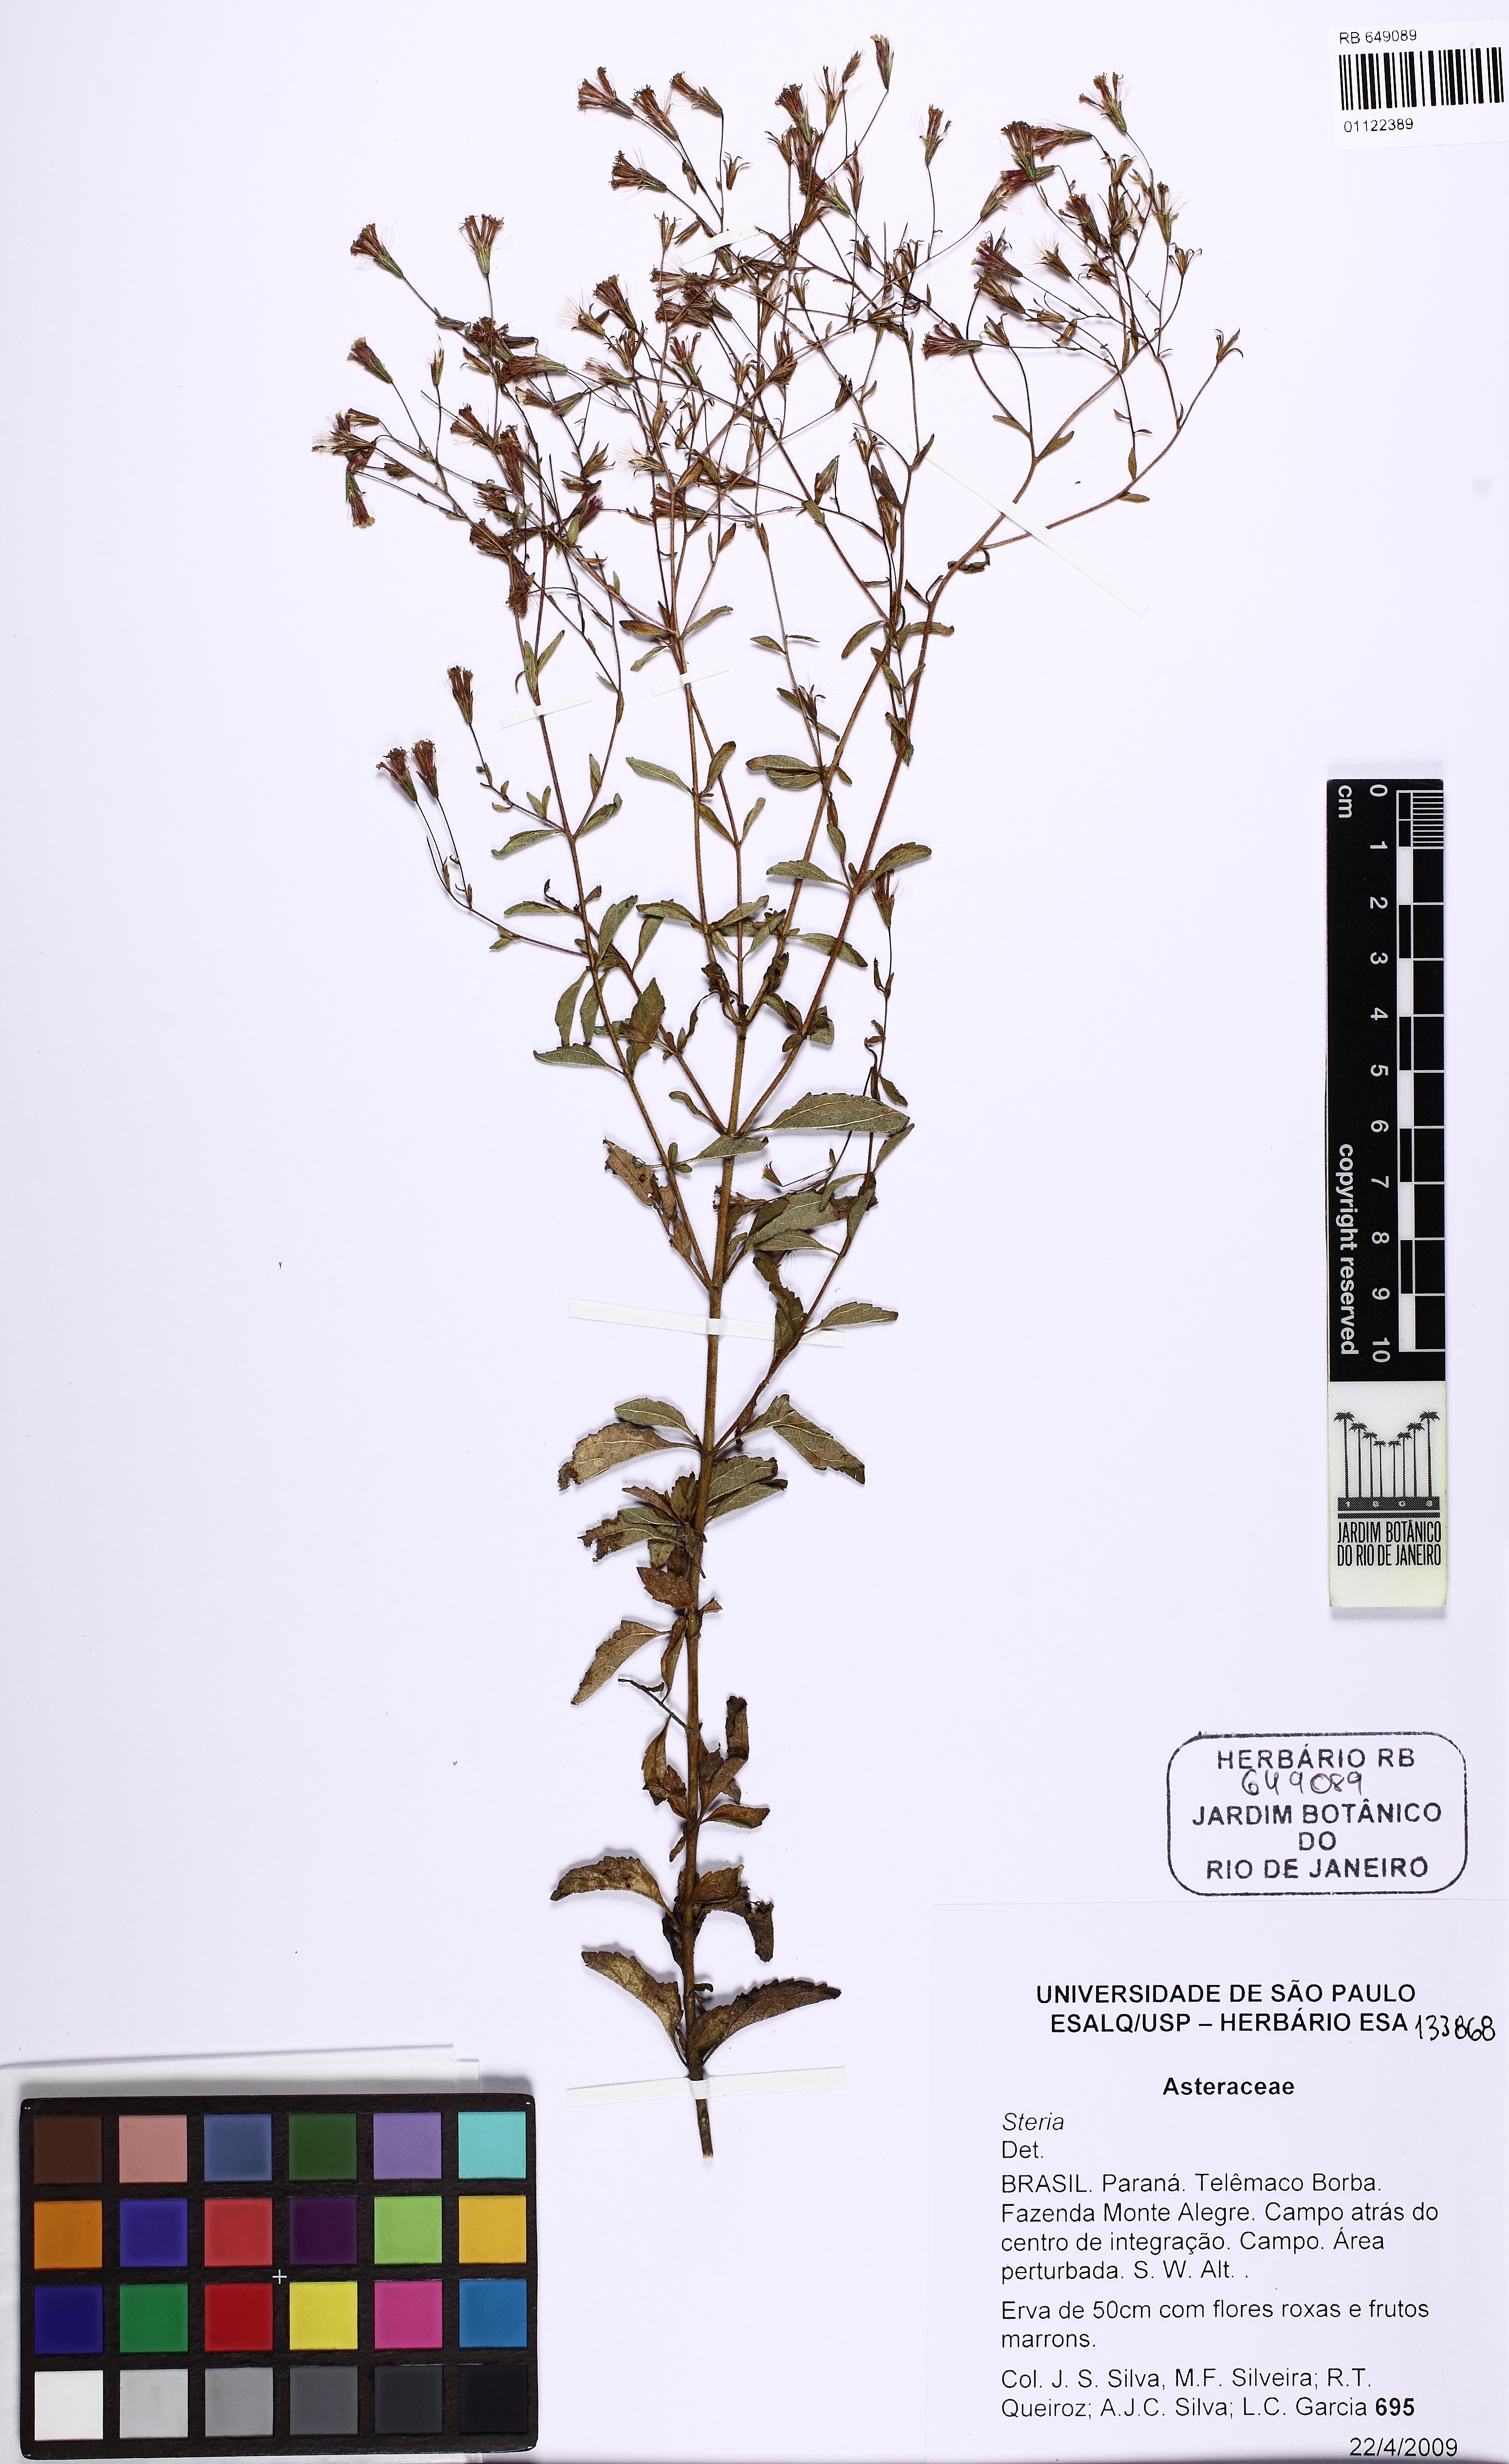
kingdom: Plantae
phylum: Tracheophyta
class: Magnoliopsida
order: Asterales
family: Asteraceae
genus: Stevia
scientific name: Stevia
